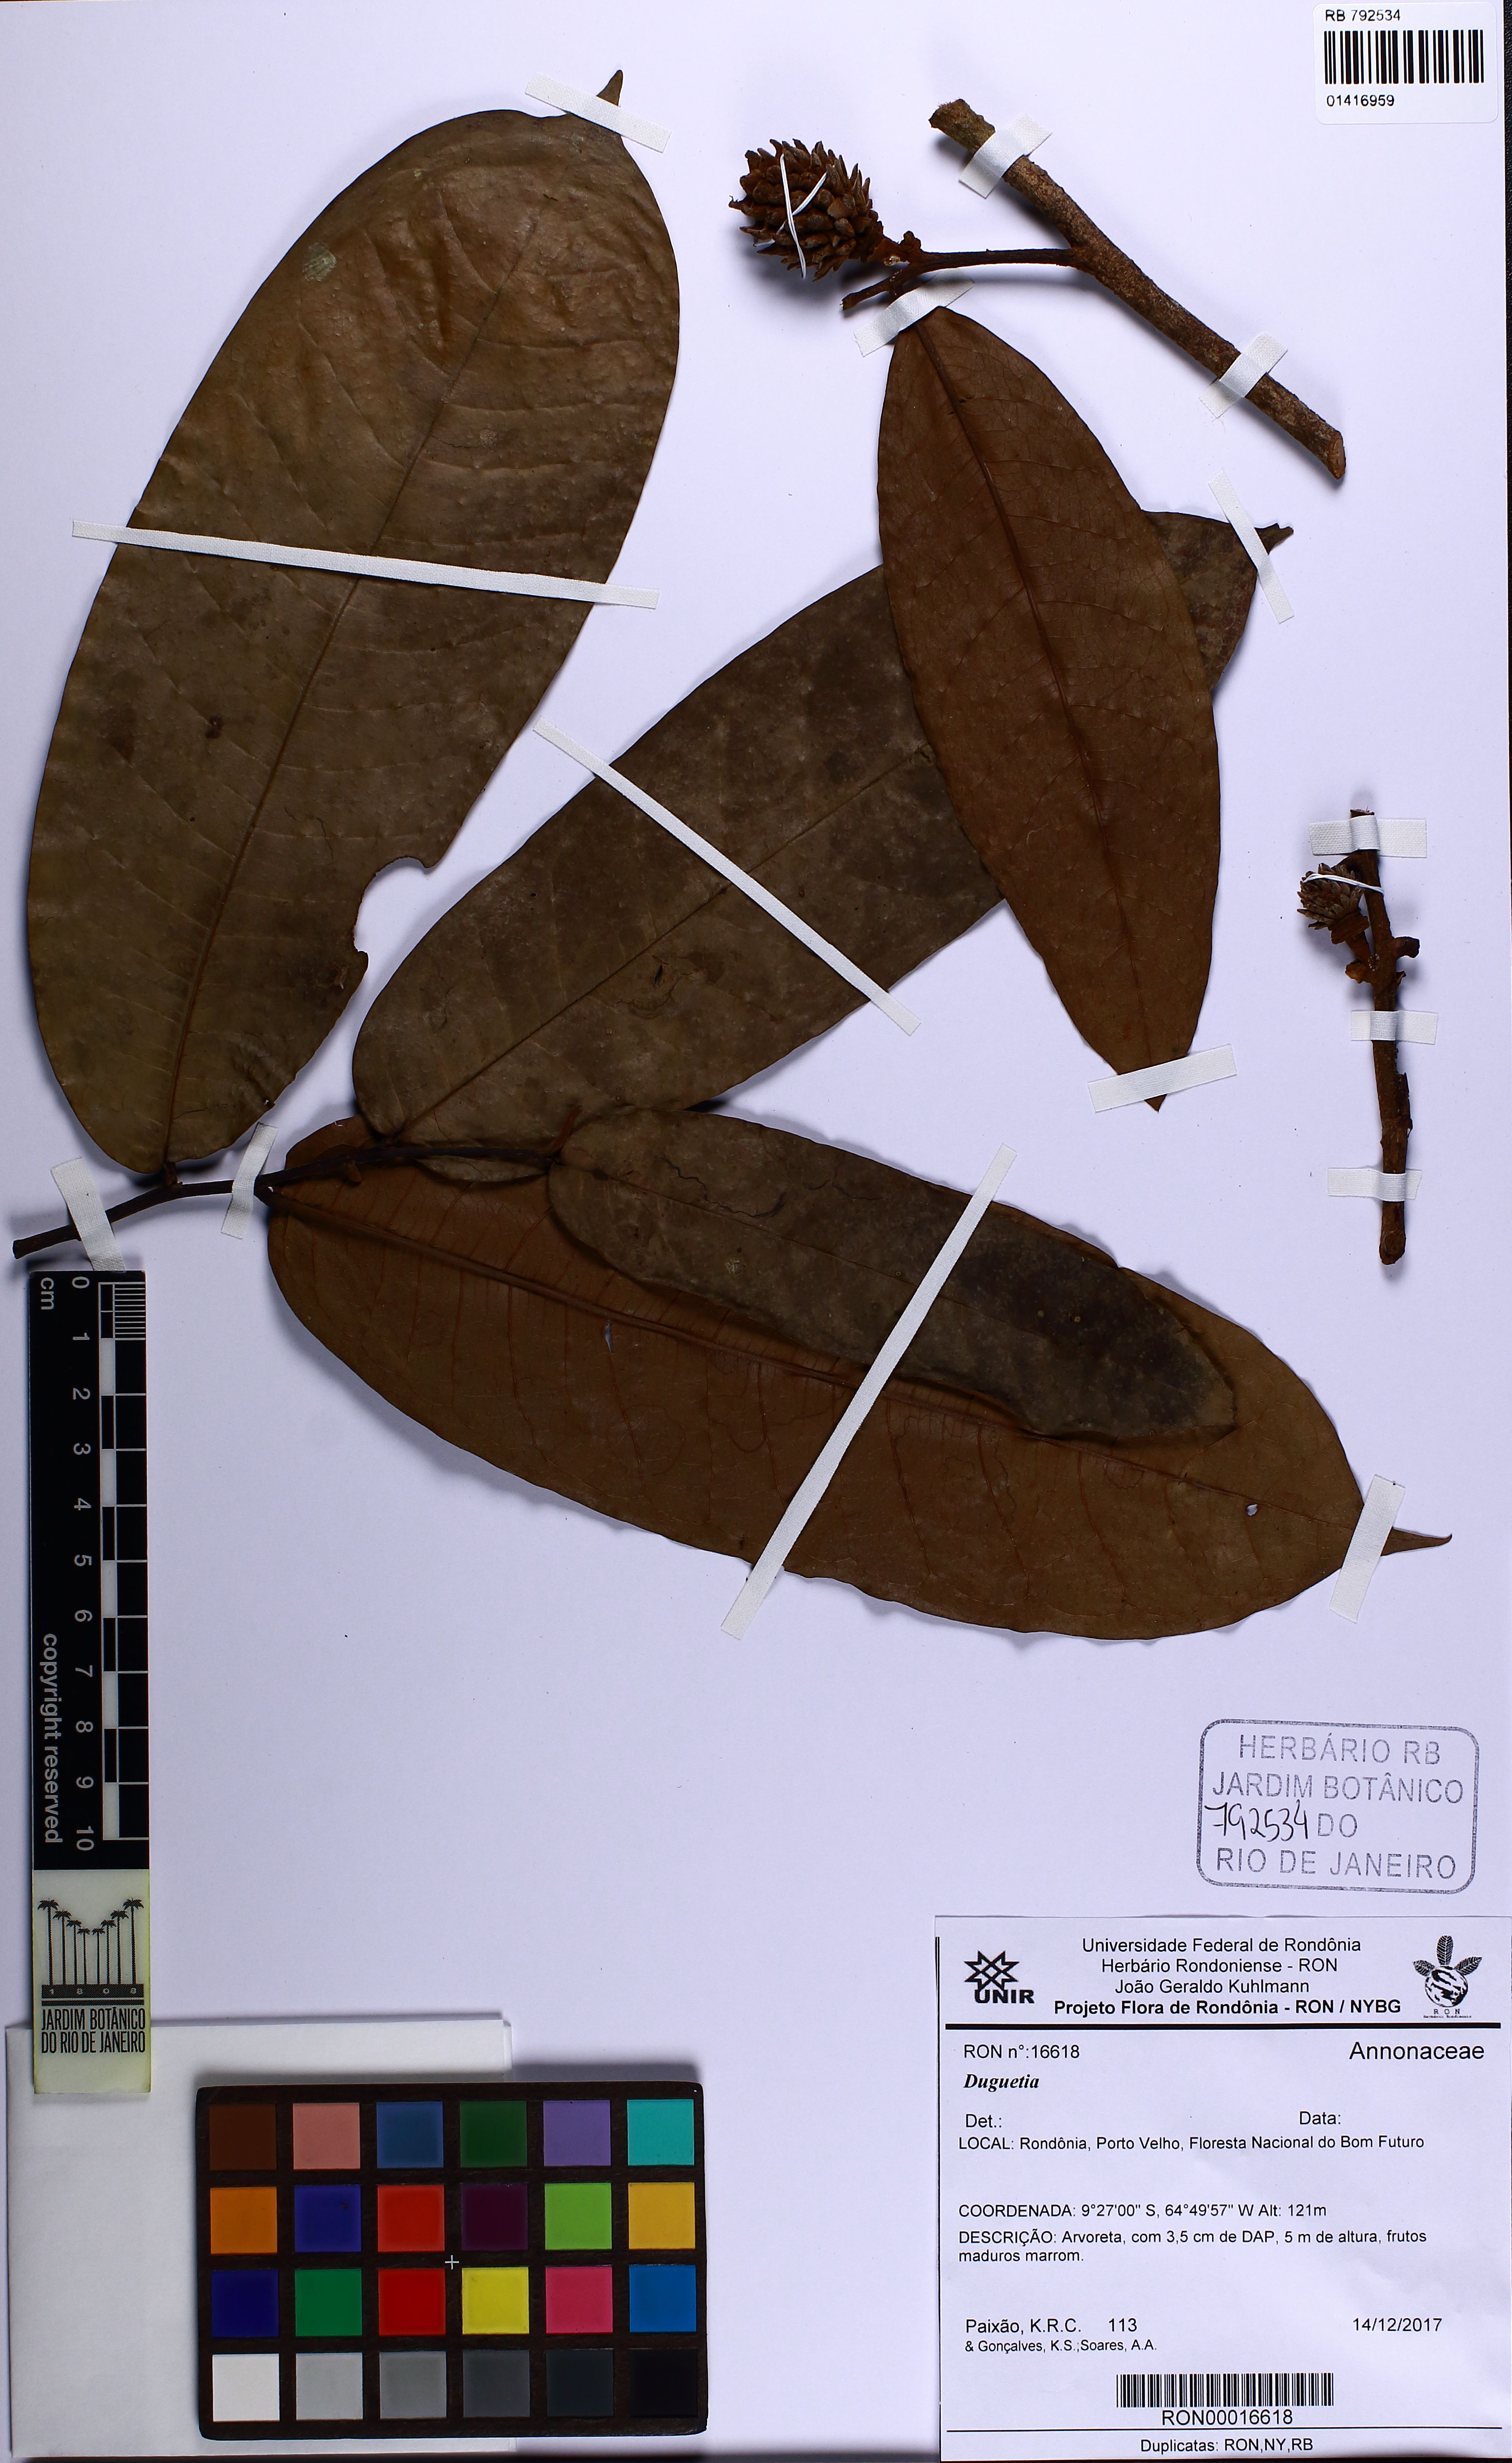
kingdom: Plantae
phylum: Tracheophyta
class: Magnoliopsida
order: Magnoliales
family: Annonaceae
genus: Duguetia
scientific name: Duguetia
